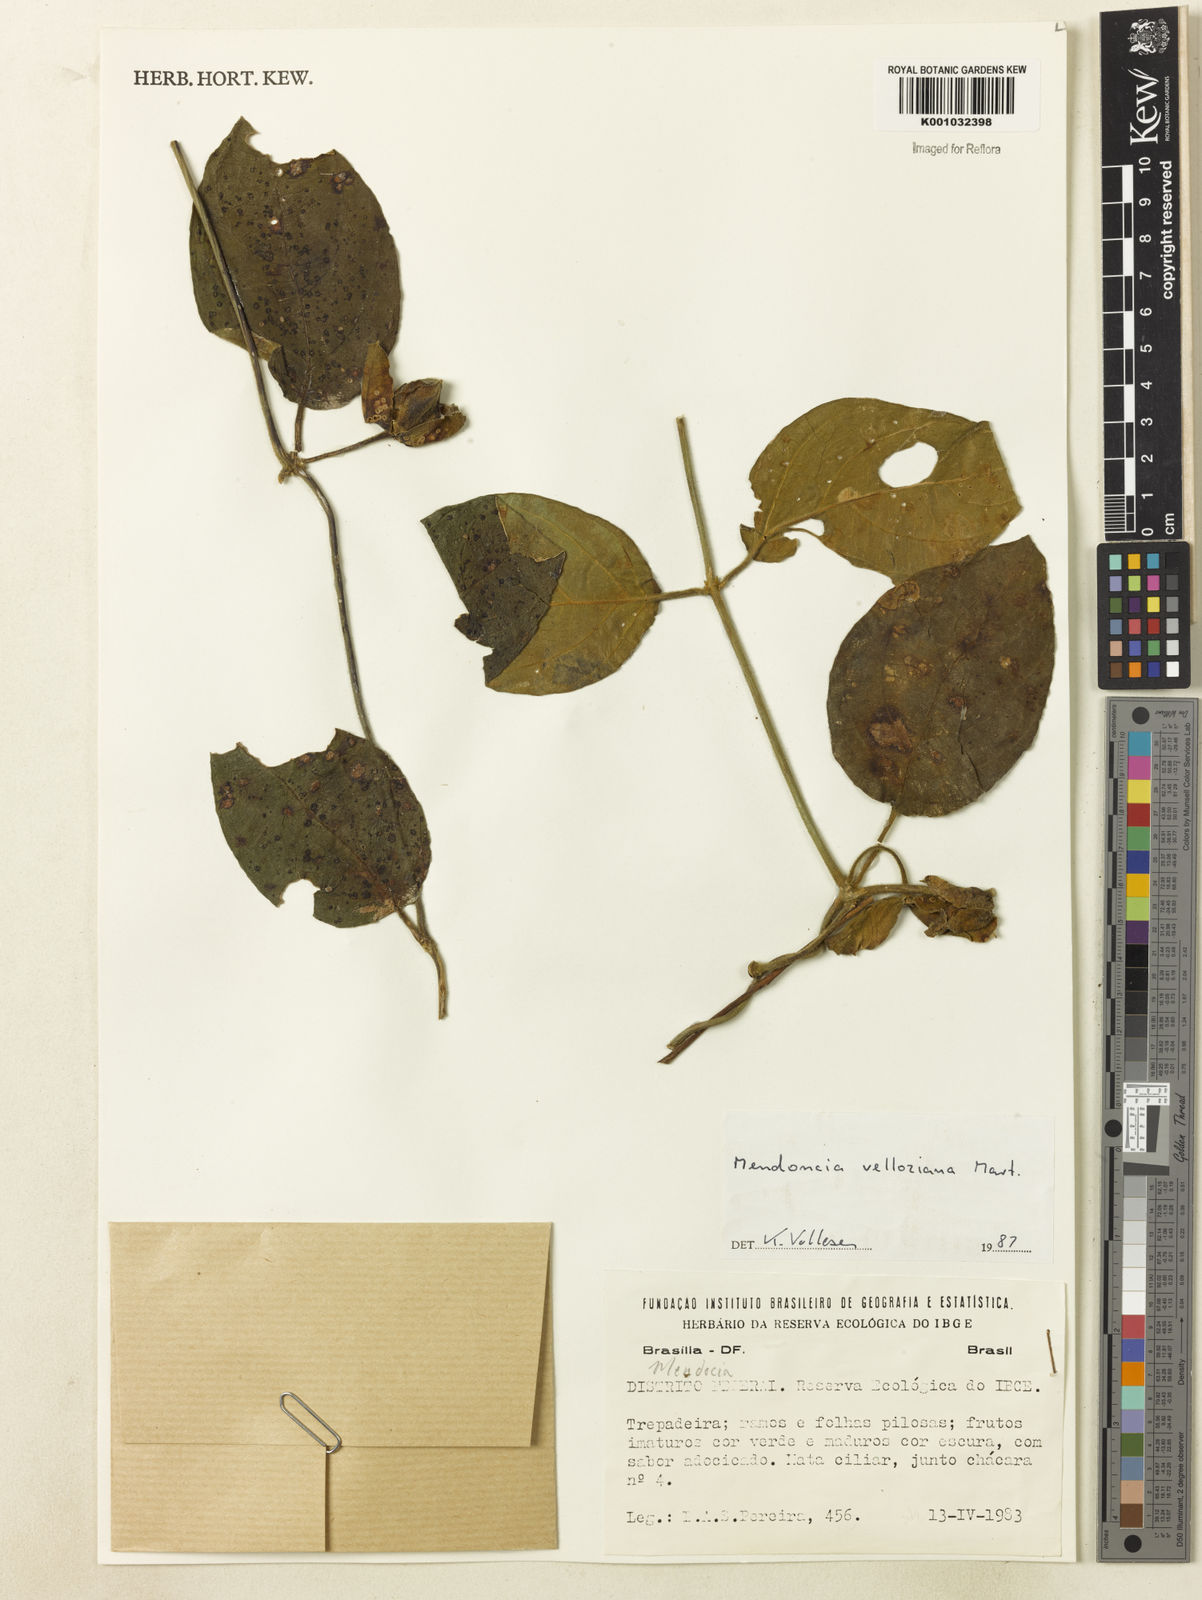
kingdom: Plantae
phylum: Tracheophyta
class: Magnoliopsida
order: Lamiales
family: Acanthaceae
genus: Mendoncia
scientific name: Mendoncia velloziana
